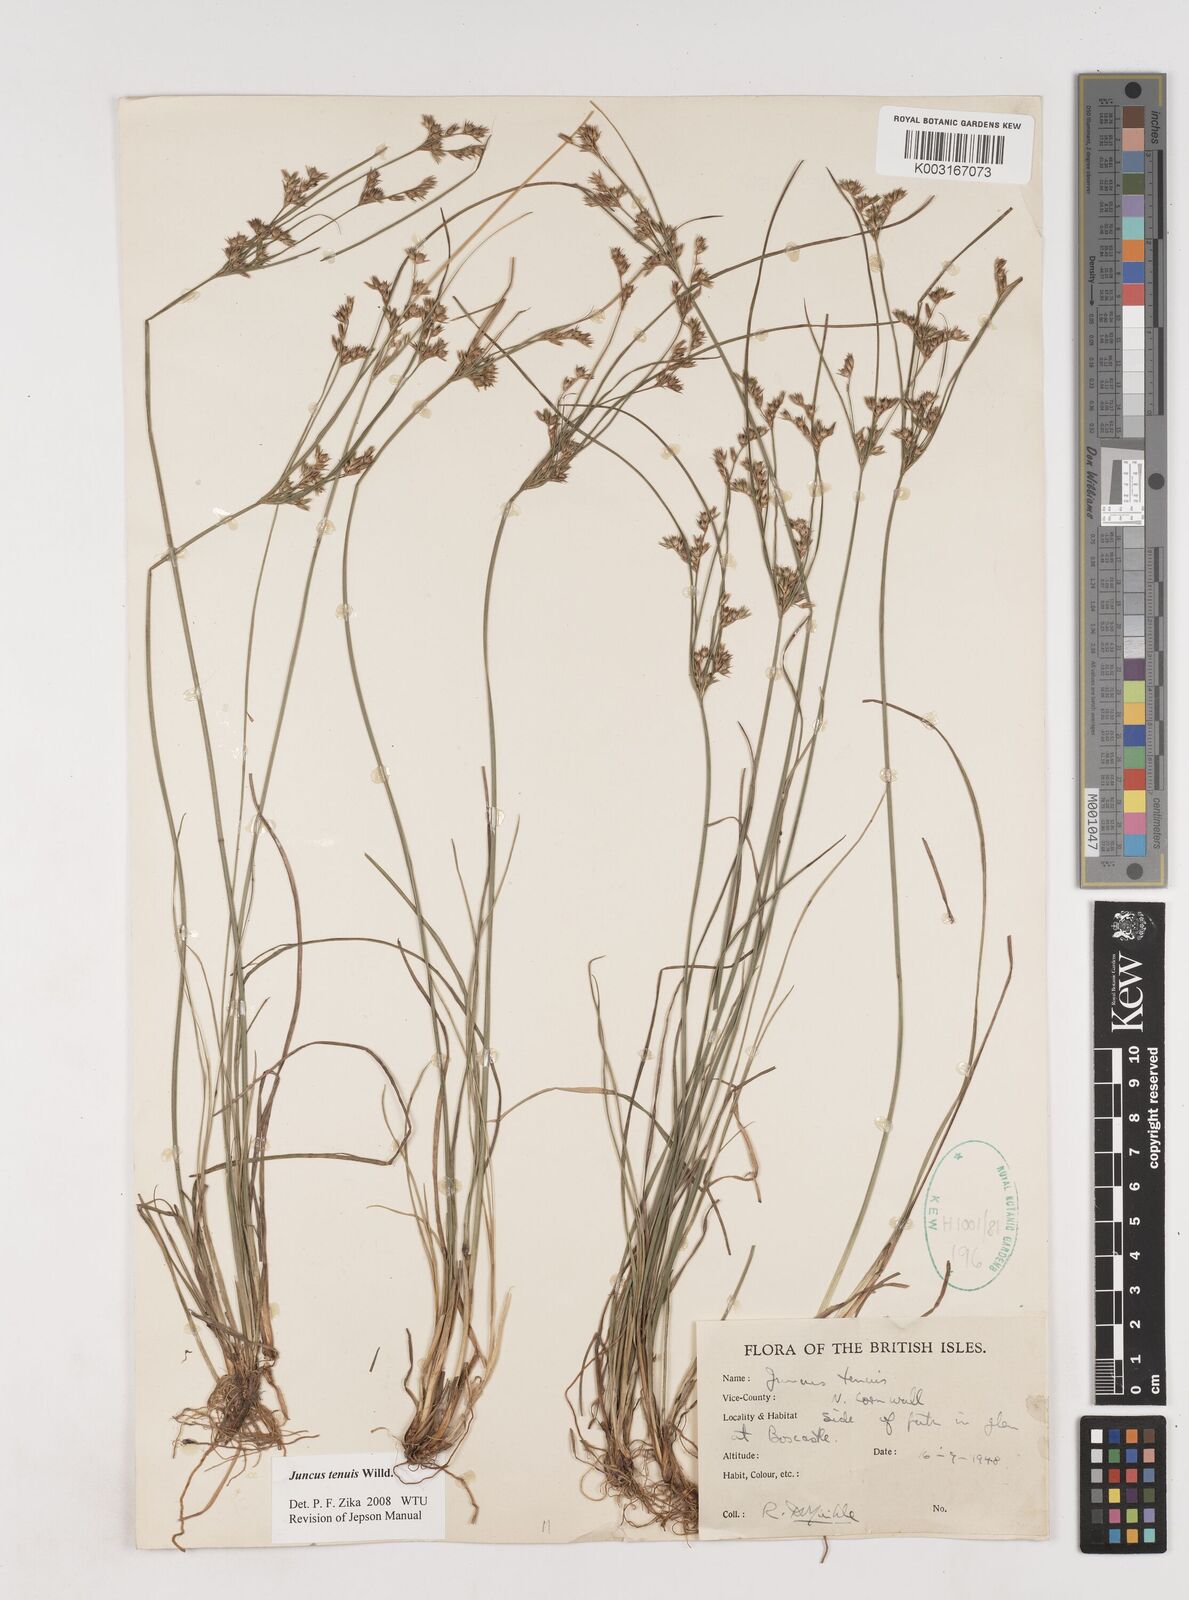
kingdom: Plantae
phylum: Tracheophyta
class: Liliopsida
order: Poales
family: Juncaceae
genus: Juncus
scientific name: Juncus tenuis
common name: Slender rush
